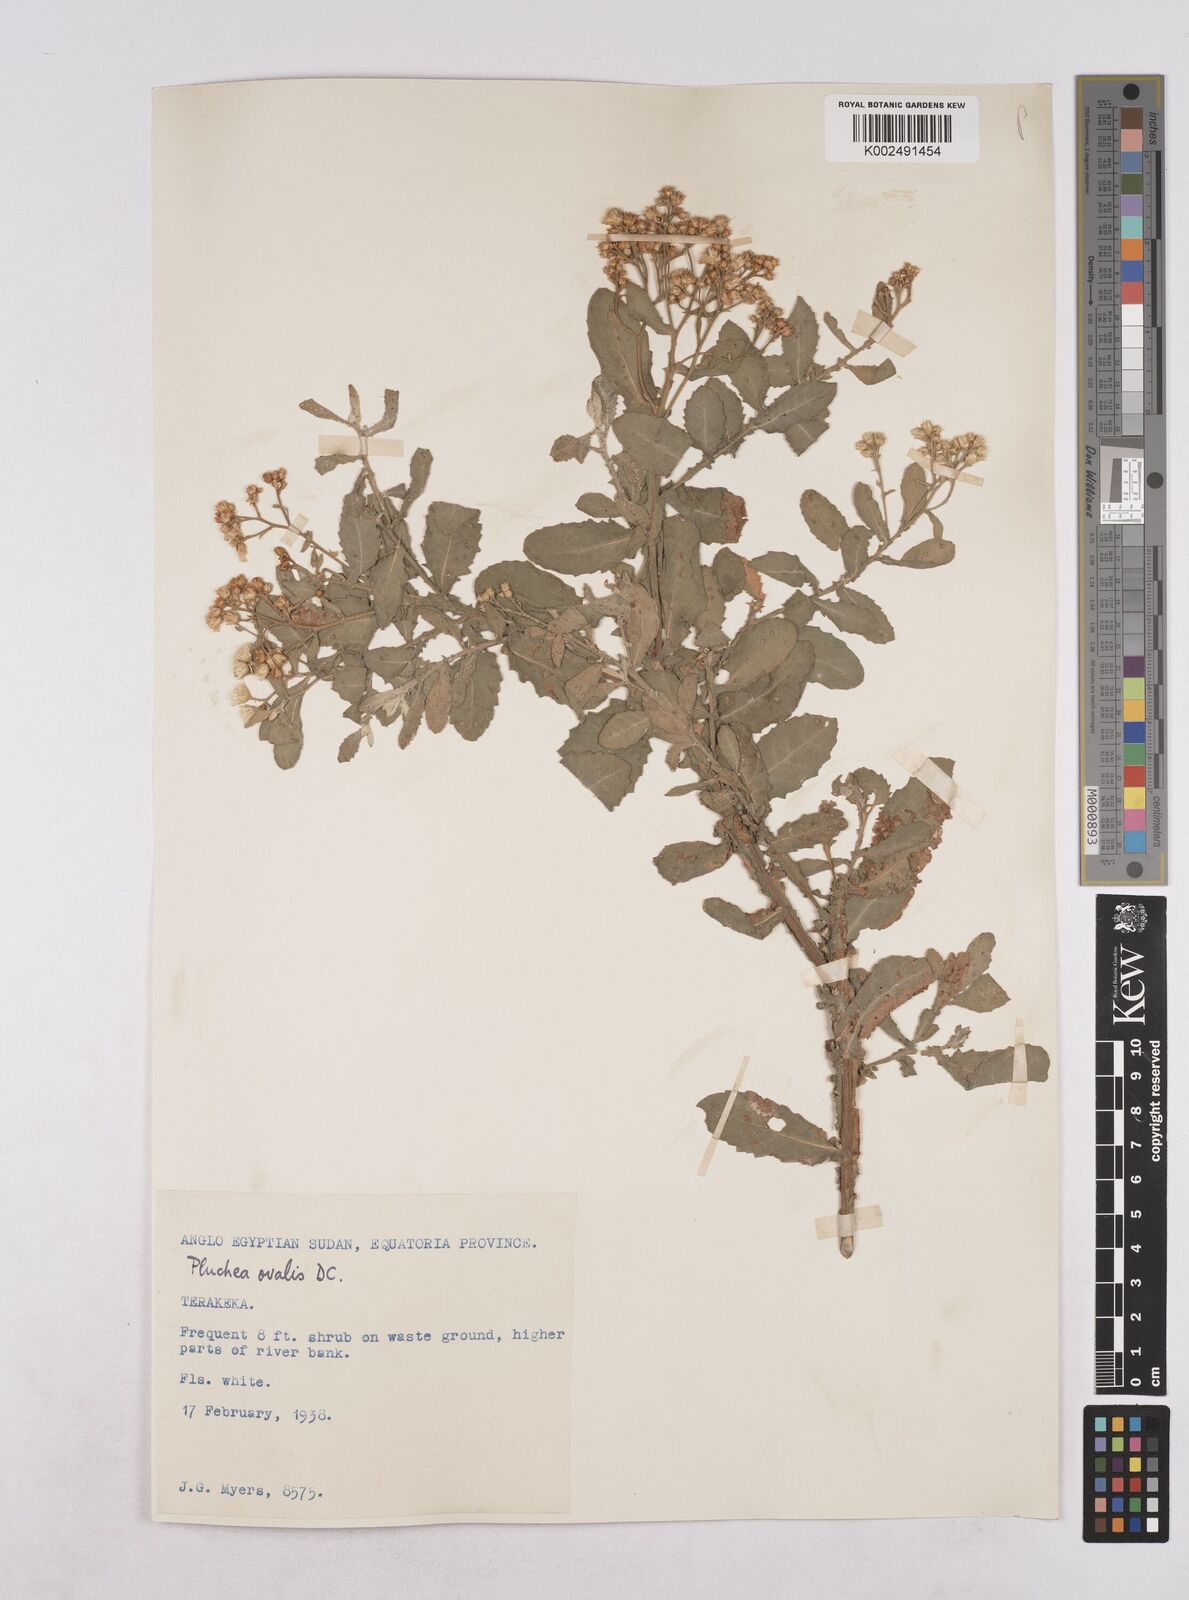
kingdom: Plantae
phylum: Tracheophyta
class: Magnoliopsida
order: Asterales
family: Asteraceae
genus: Pluchea
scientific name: Pluchea ovalis
